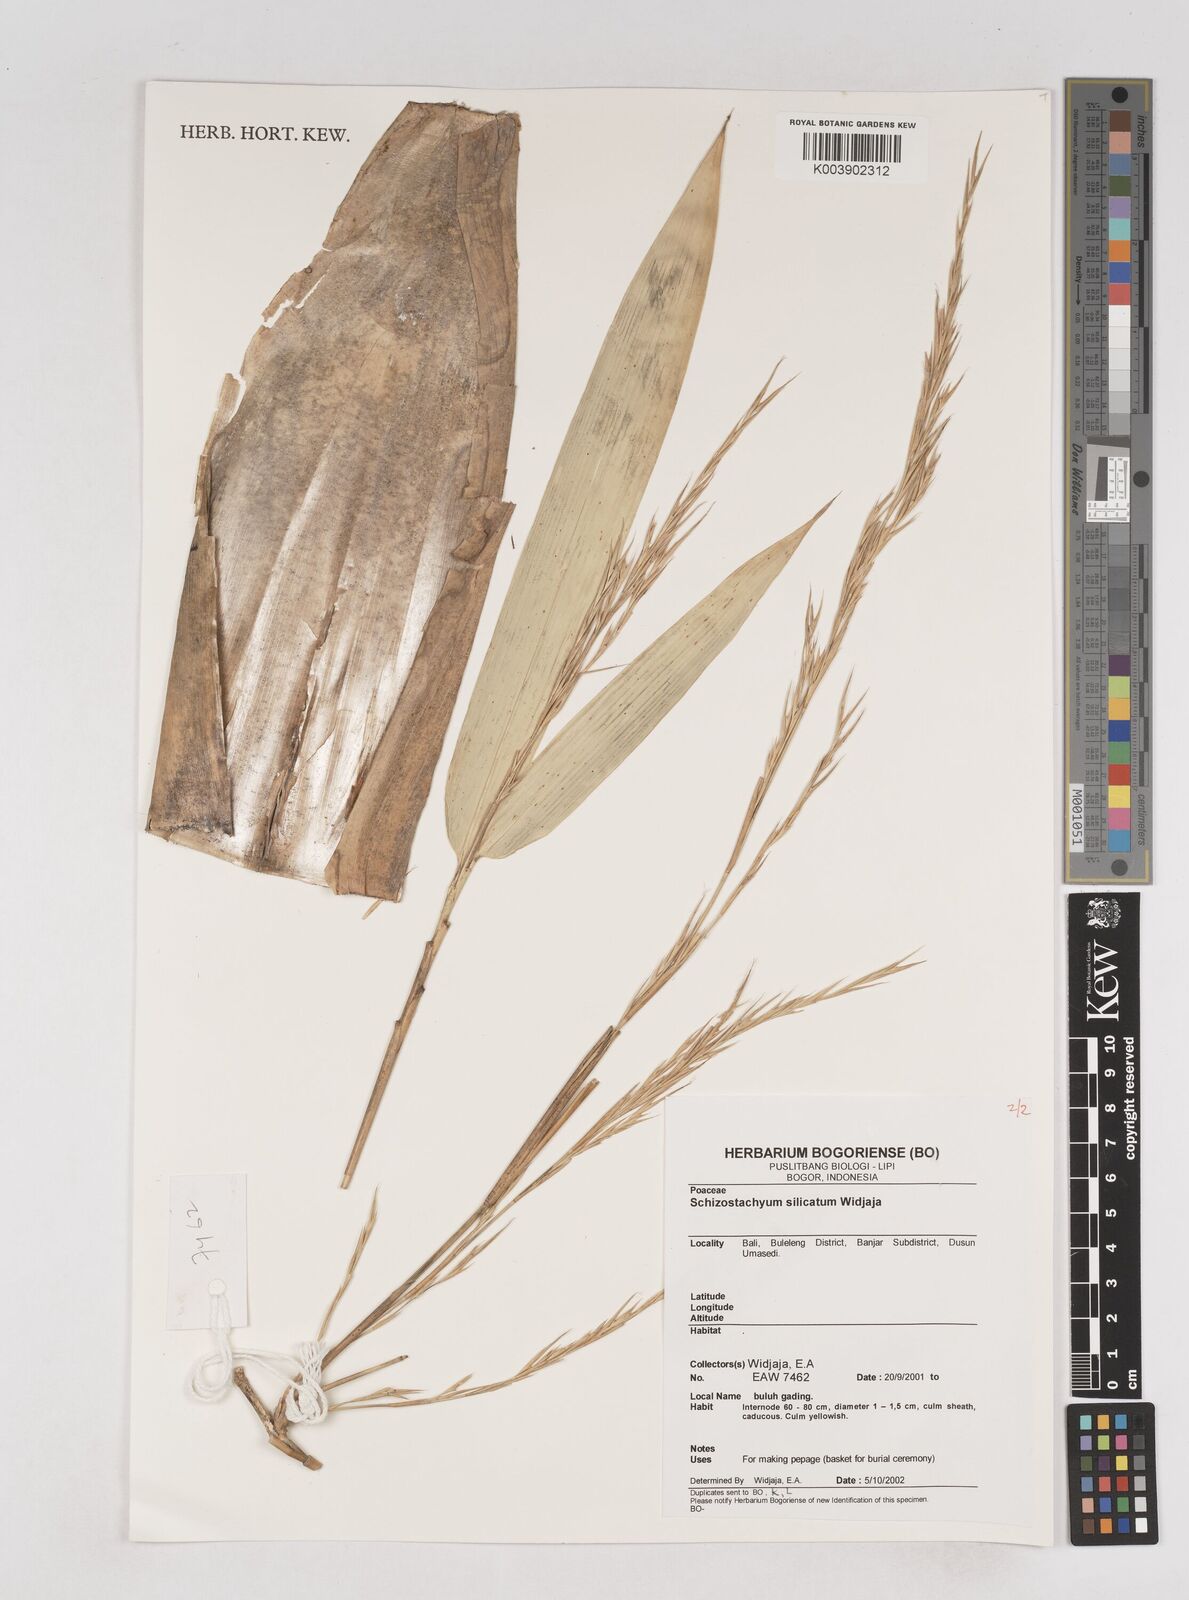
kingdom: Plantae
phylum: Tracheophyta
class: Liliopsida
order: Poales
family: Poaceae
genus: Schizostachyum
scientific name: Schizostachyum silicatum
